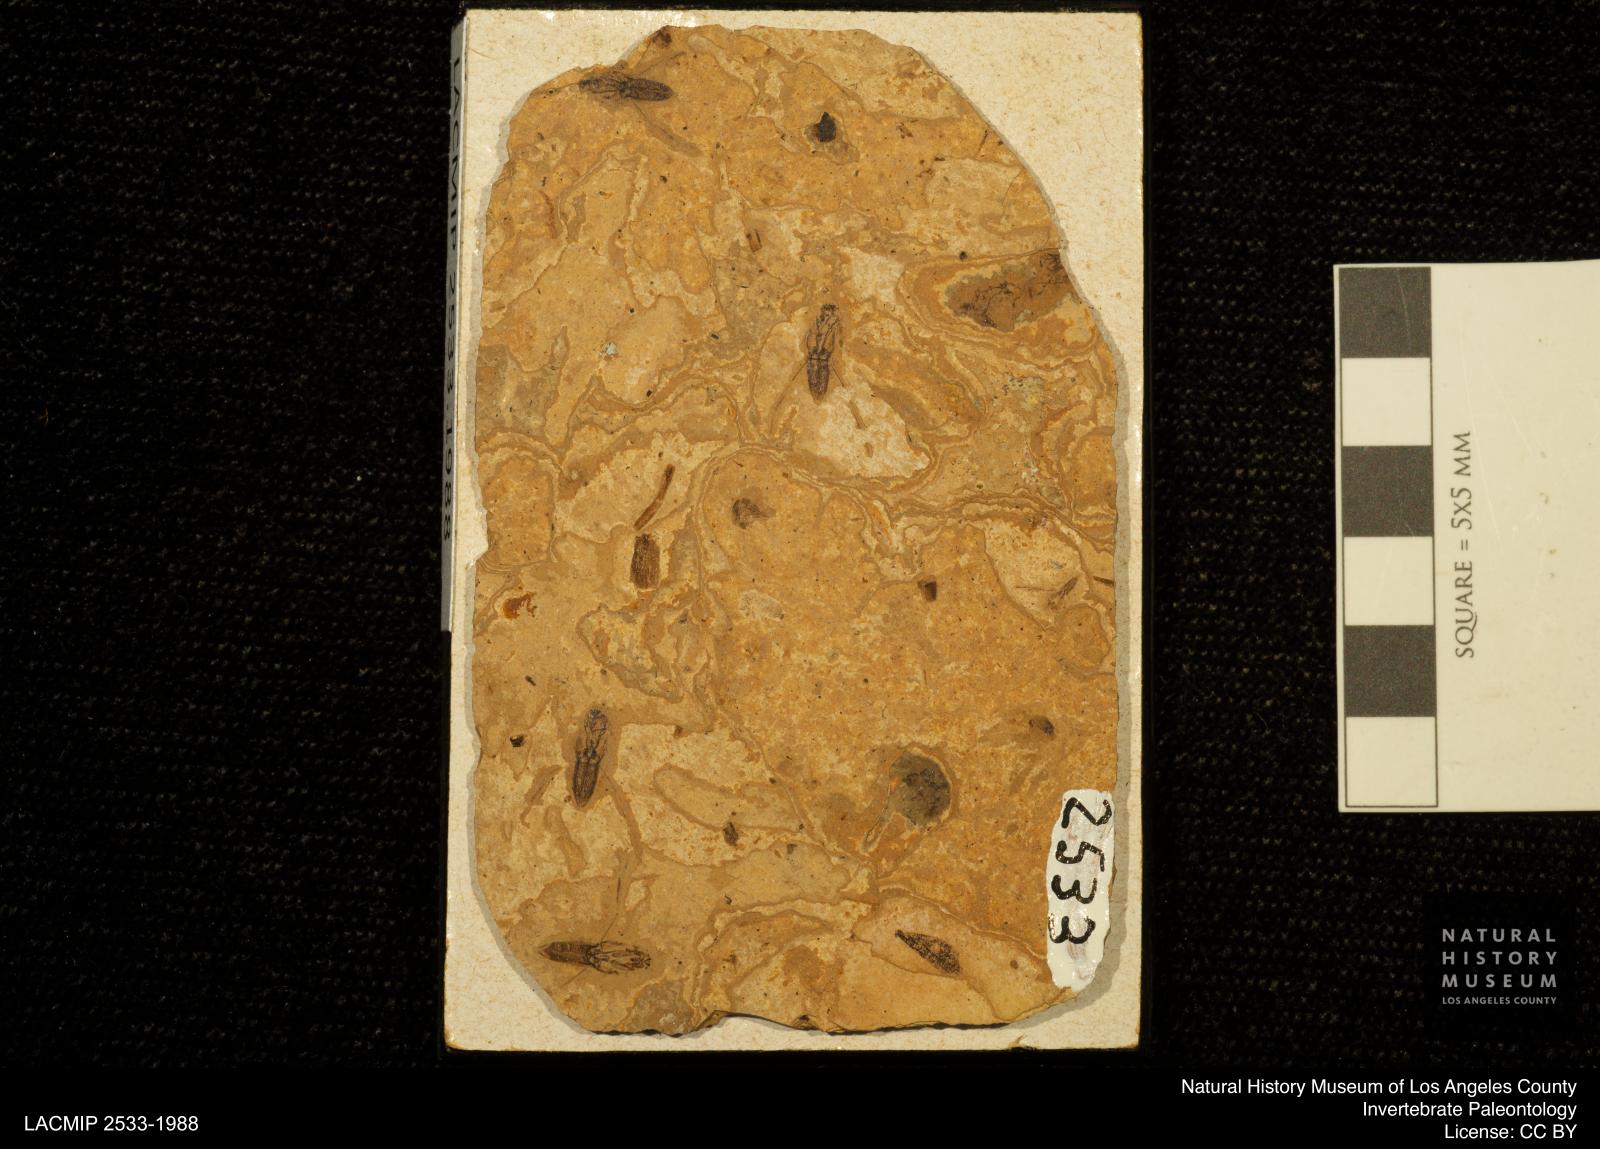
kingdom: Animalia
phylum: Arthropoda
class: Insecta
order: Hemiptera
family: Notonectidae
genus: Anisops
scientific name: Anisops Notonecta deichmuelleri
